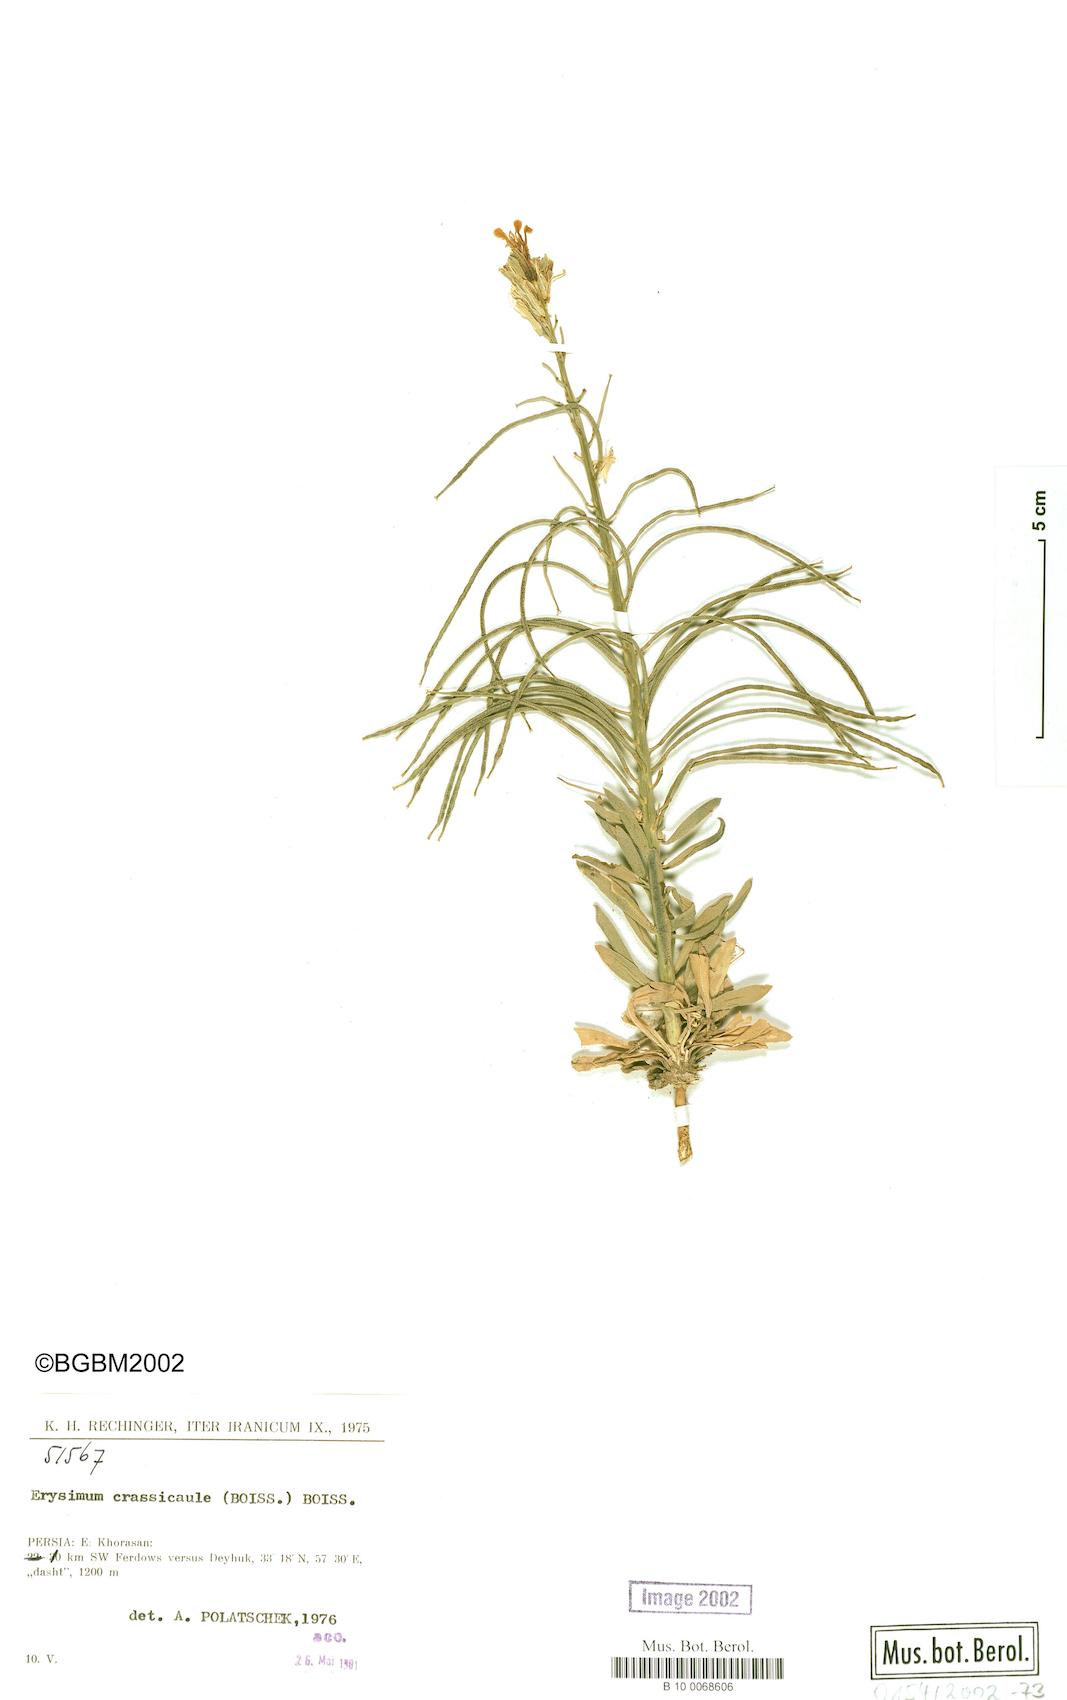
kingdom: Plantae
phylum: Tracheophyta
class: Magnoliopsida
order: Brassicales
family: Brassicaceae
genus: Erysimum
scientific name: Erysimum crassicaule
